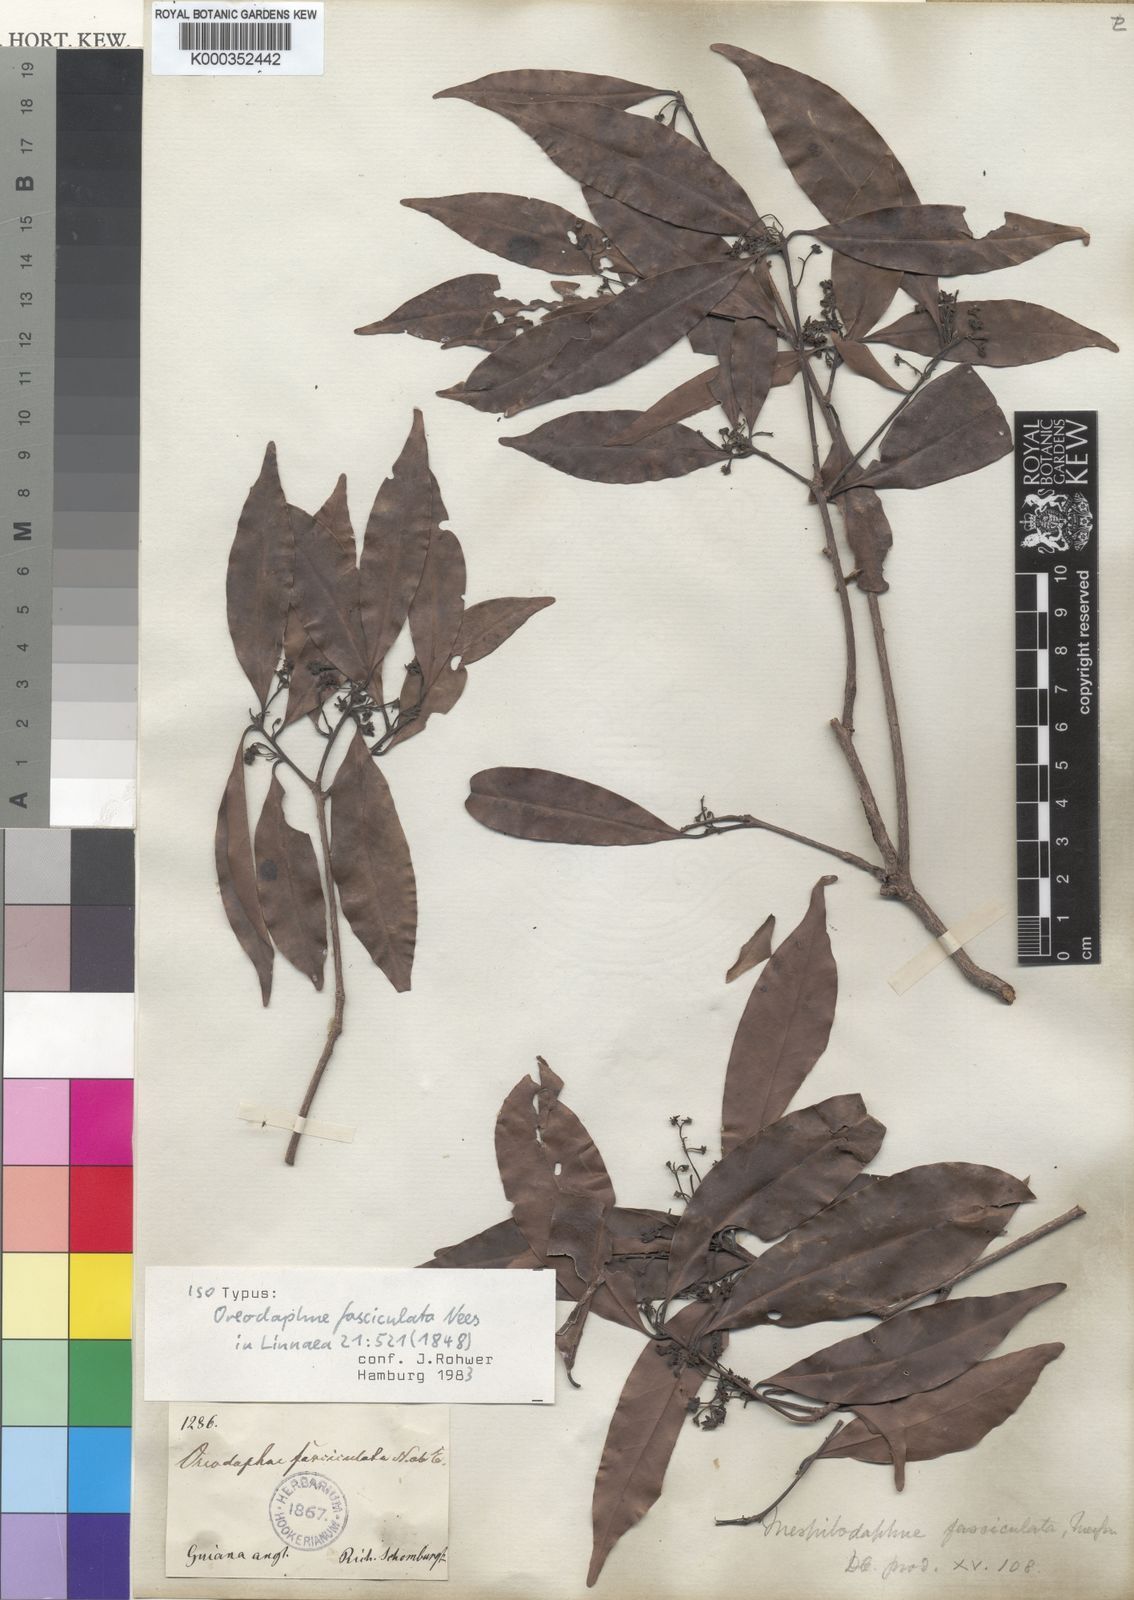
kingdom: Plantae
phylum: Tracheophyta
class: Magnoliopsida
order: Laurales
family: Lauraceae
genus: Mespilodaphne
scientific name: Mespilodaphne fasciculata
